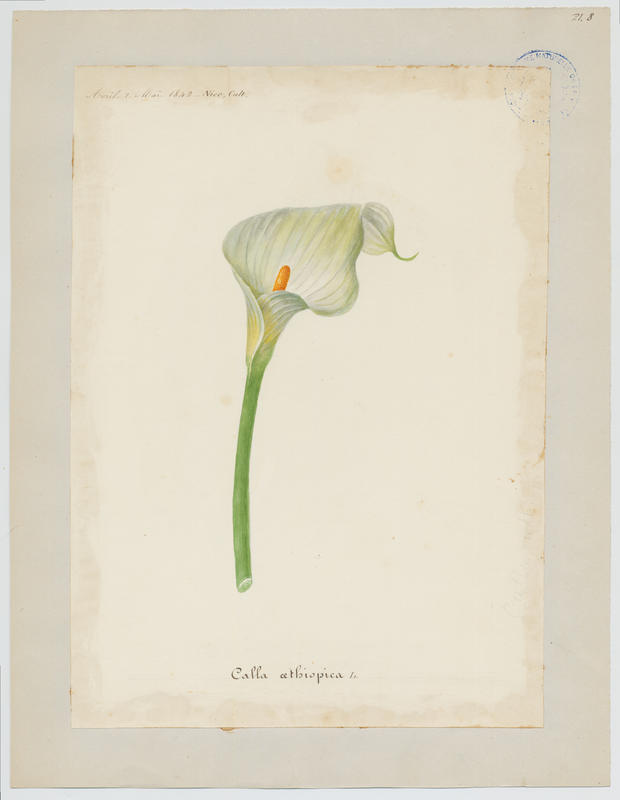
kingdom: Plantae
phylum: Tracheophyta
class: Liliopsida
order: Alismatales
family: Araceae
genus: Zantedeschia
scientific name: Zantedeschia aethiopica
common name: Altar-lily
